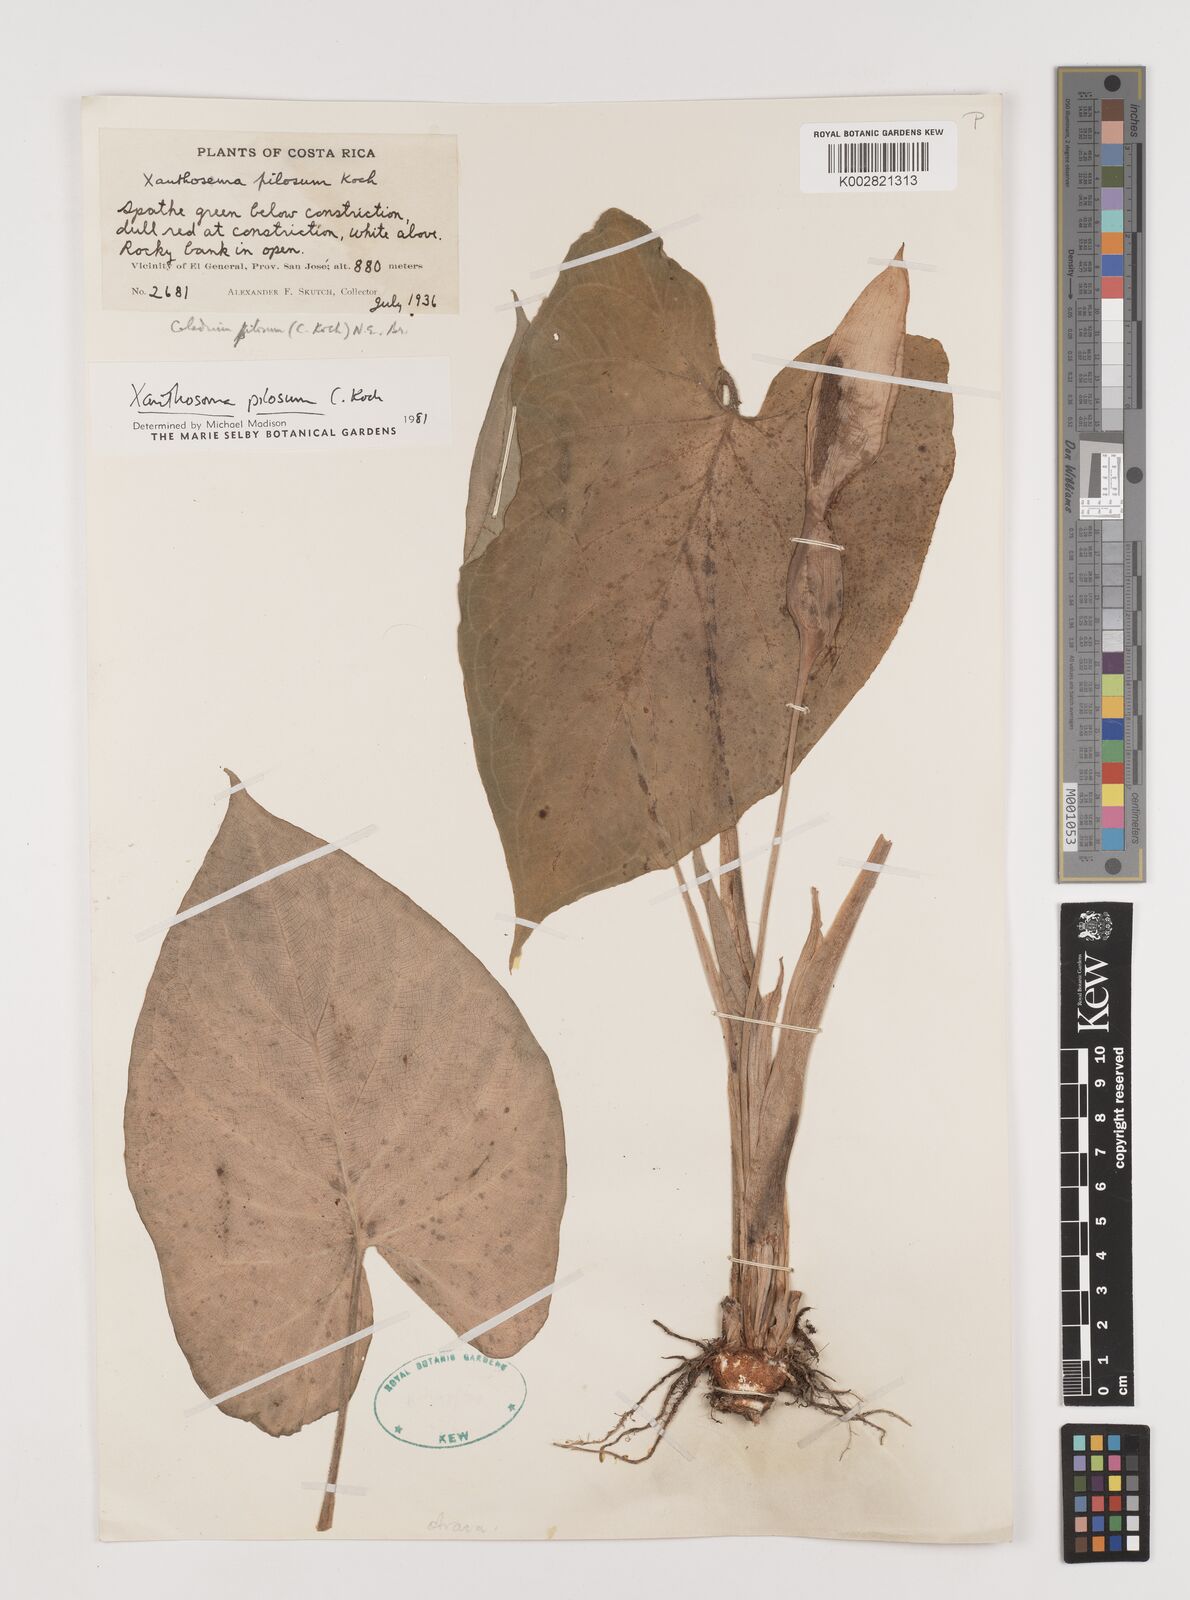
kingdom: Plantae
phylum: Tracheophyta
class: Liliopsida
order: Alismatales
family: Araceae
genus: Xanthosoma
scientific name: Xanthosoma mexicanum
